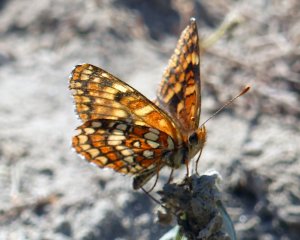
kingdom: Animalia
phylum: Arthropoda
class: Insecta
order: Lepidoptera
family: Nymphalidae
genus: Chlosyne
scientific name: Chlosyne palla
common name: Northern Checkerspot
